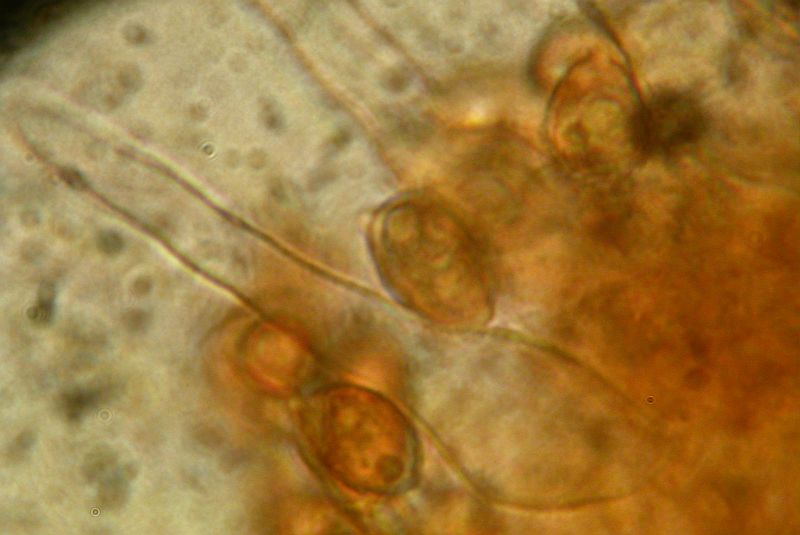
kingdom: Fungi
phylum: Basidiomycota
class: Agaricomycetes
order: Agaricales
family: Hymenogastraceae
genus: Galerina
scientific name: Galerina vittiformis
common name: Hairy leg bell
